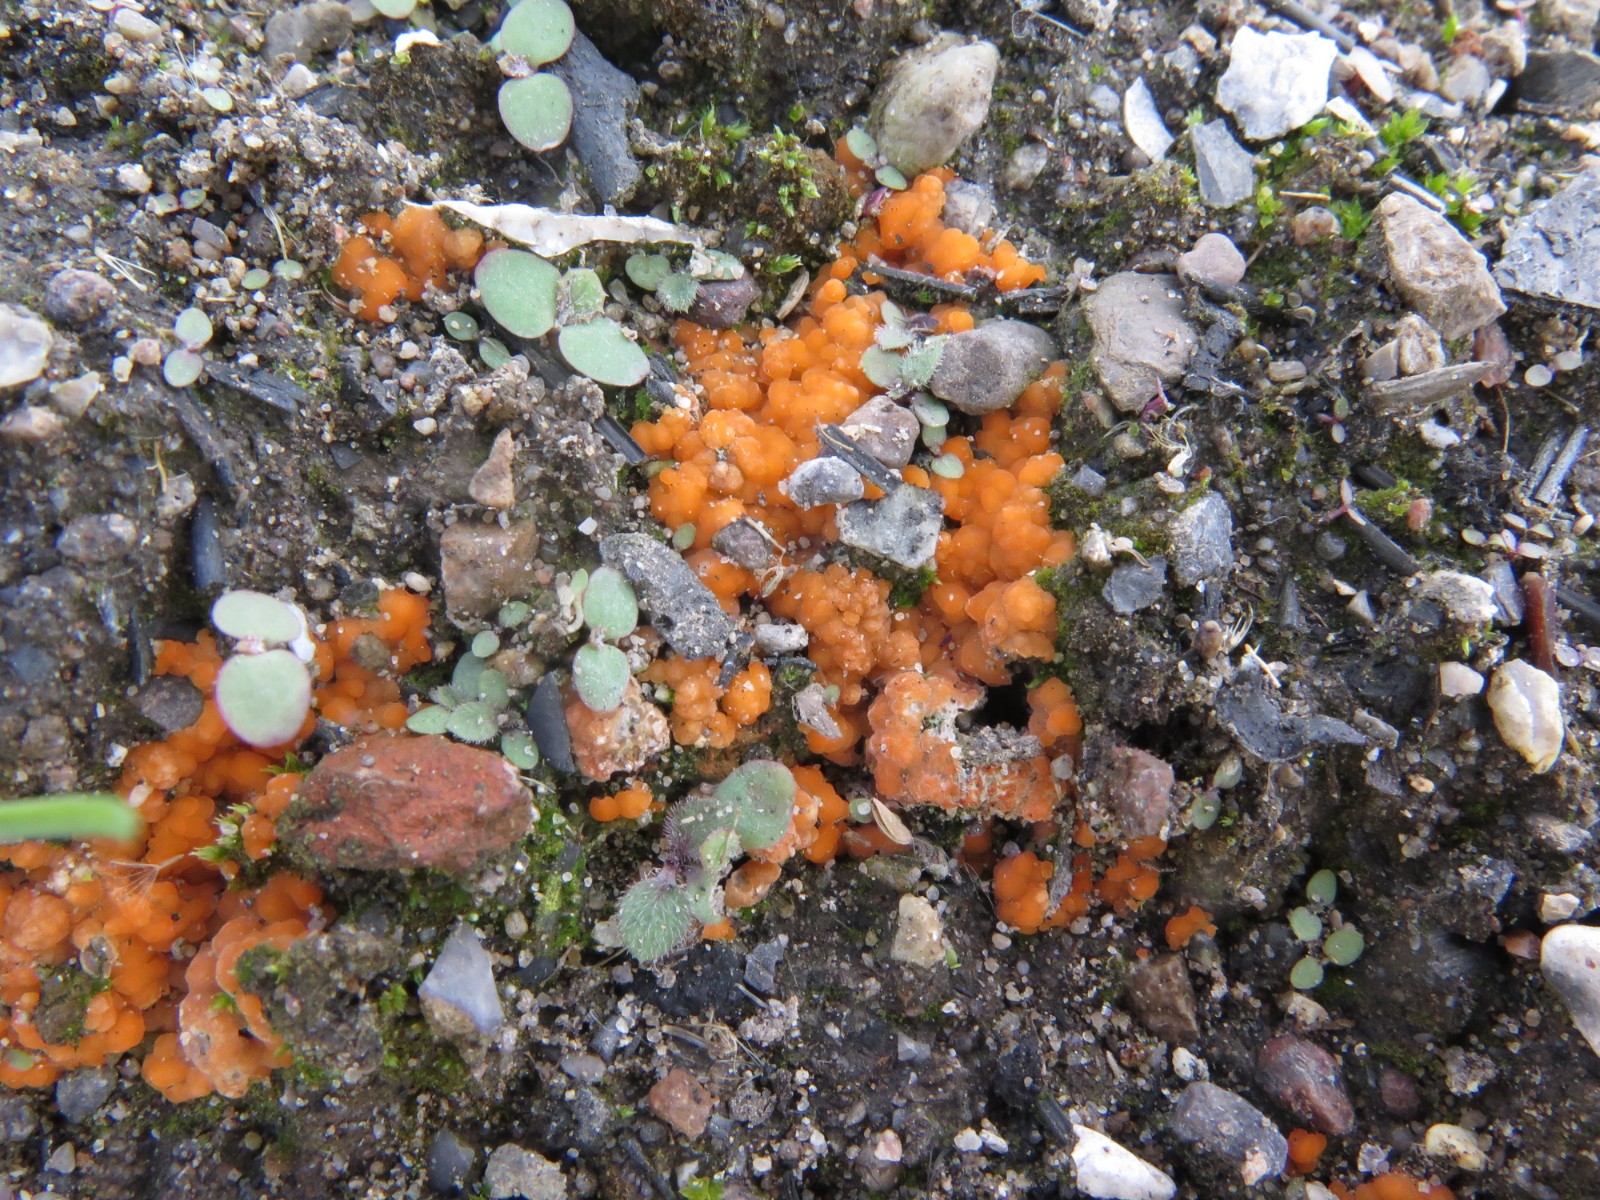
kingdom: Fungi
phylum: Ascomycota
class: Pezizomycetes
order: Pezizales
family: Pyronemataceae
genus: Pyronema
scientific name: Pyronema omphalodes
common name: glat askebæger
